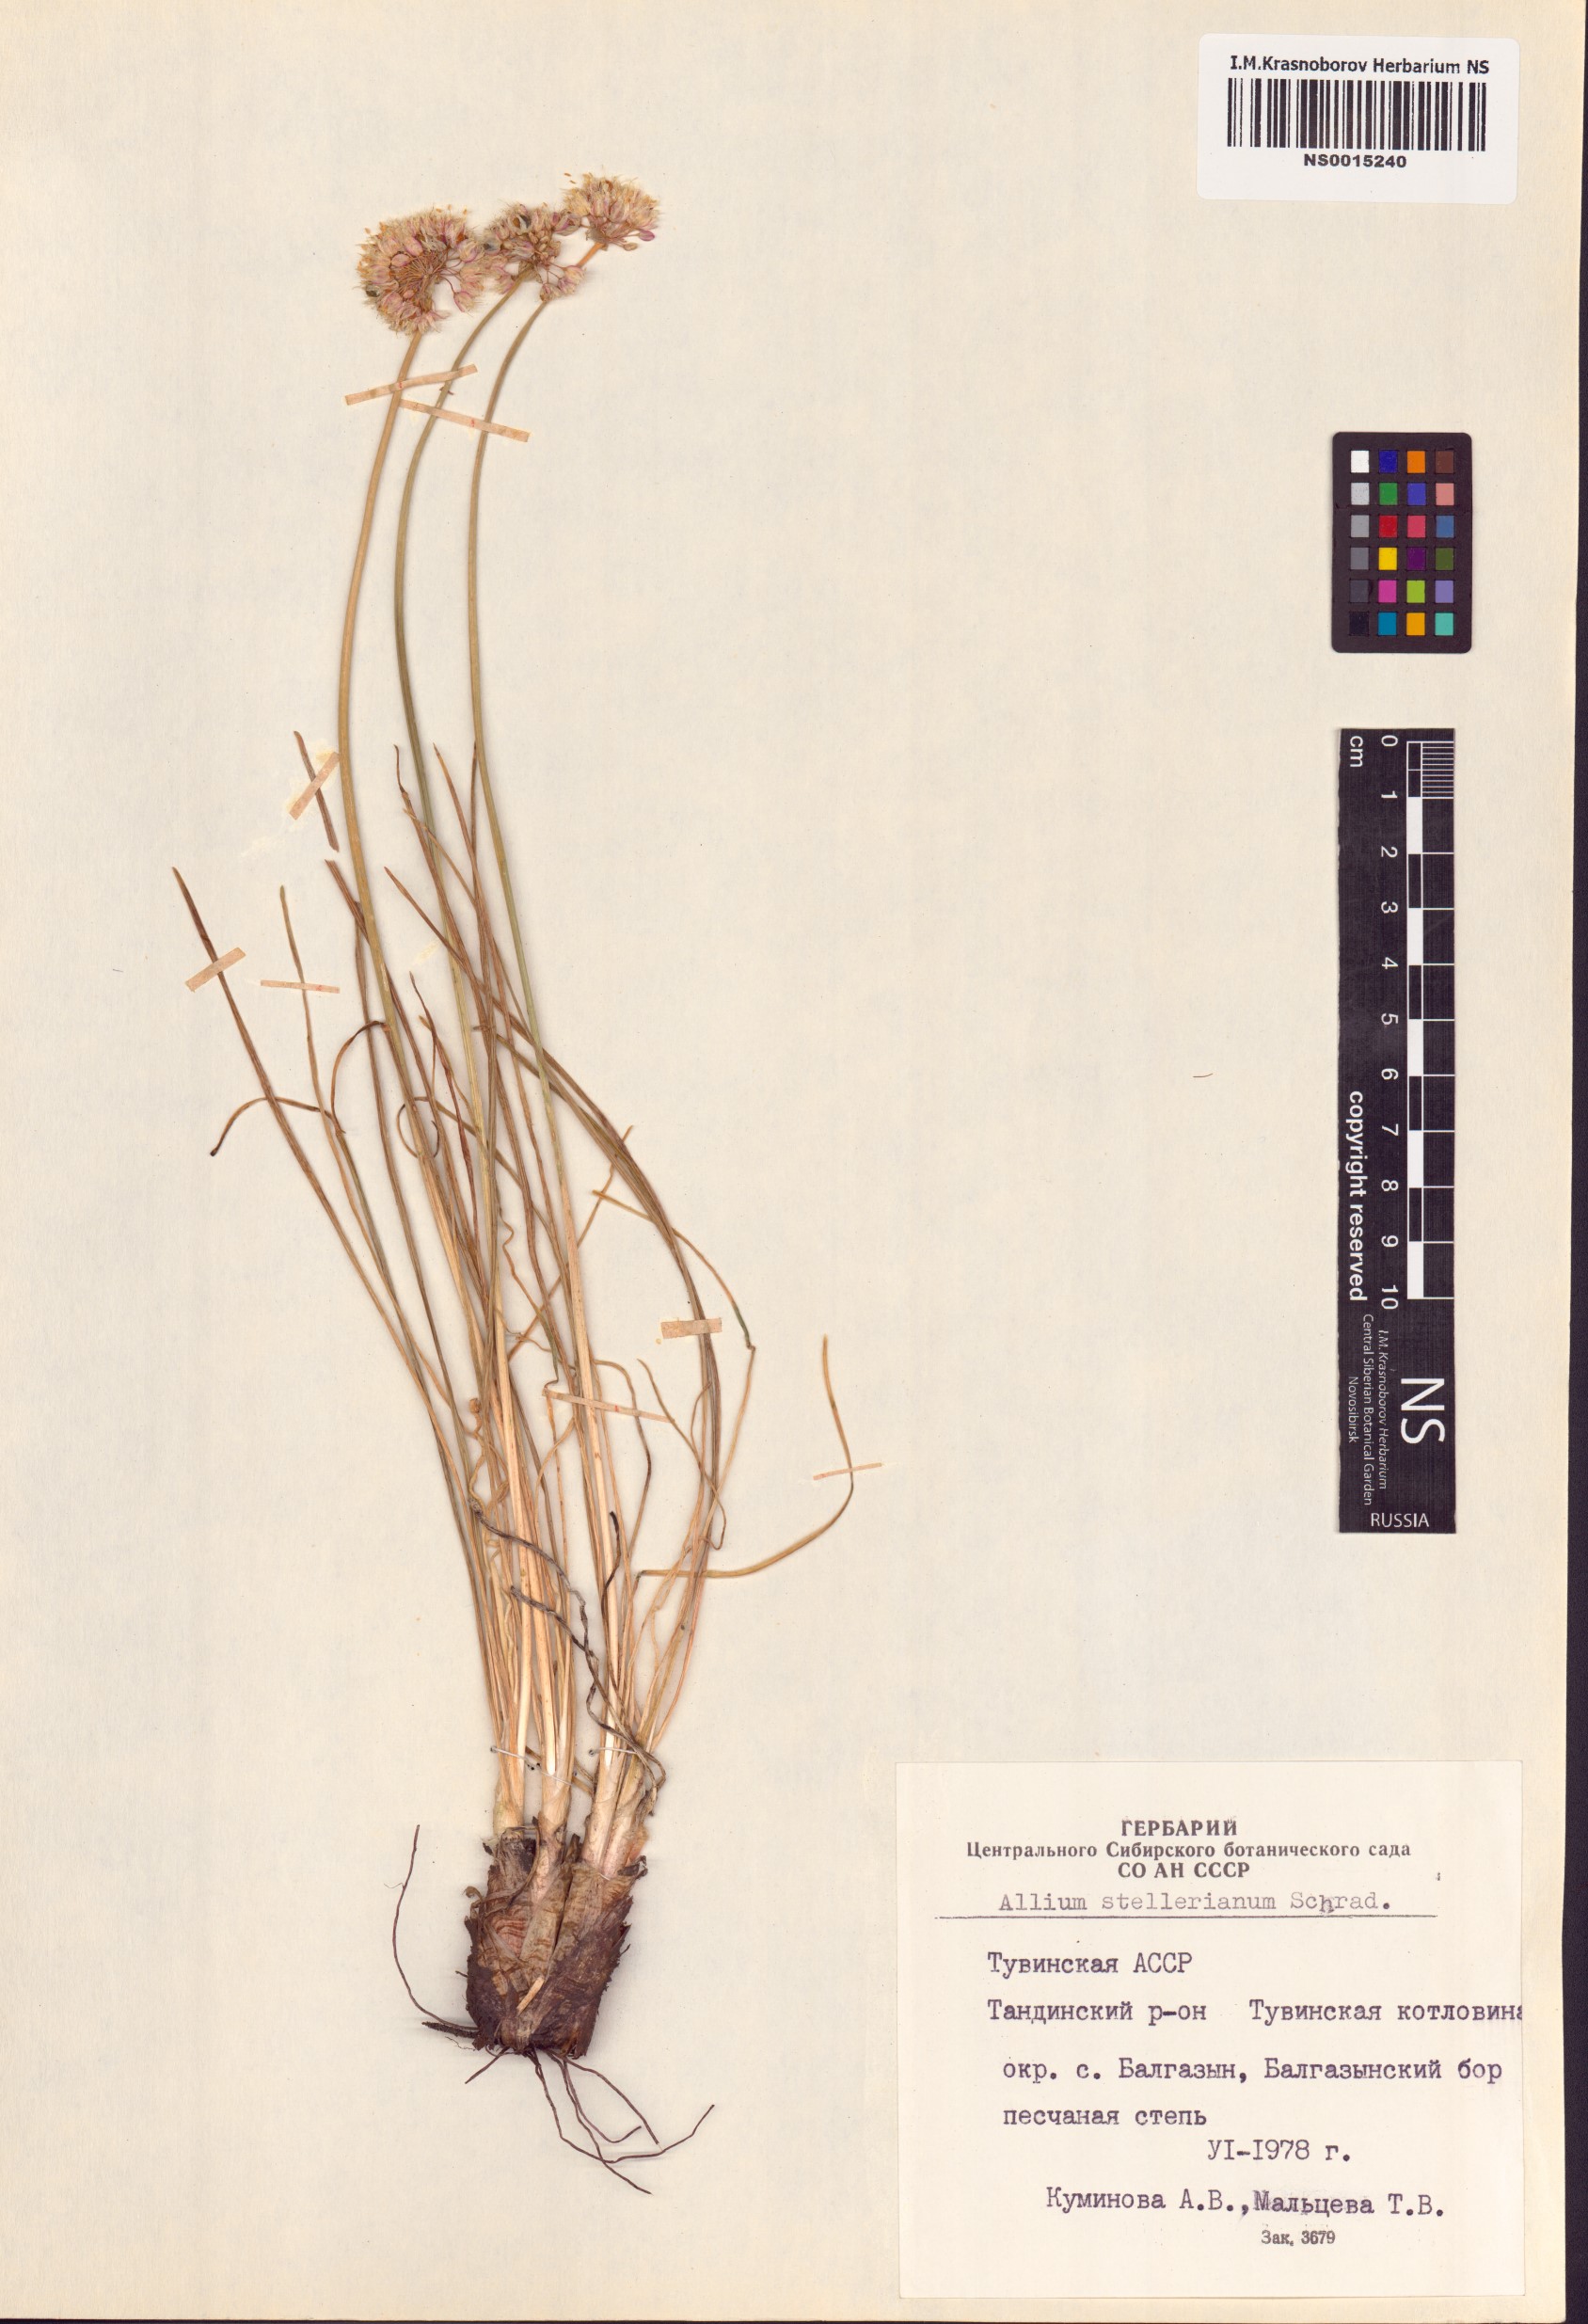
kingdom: Plantae
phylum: Tracheophyta
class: Liliopsida
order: Asparagales
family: Amaryllidaceae
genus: Allium
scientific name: Allium stellerianum
